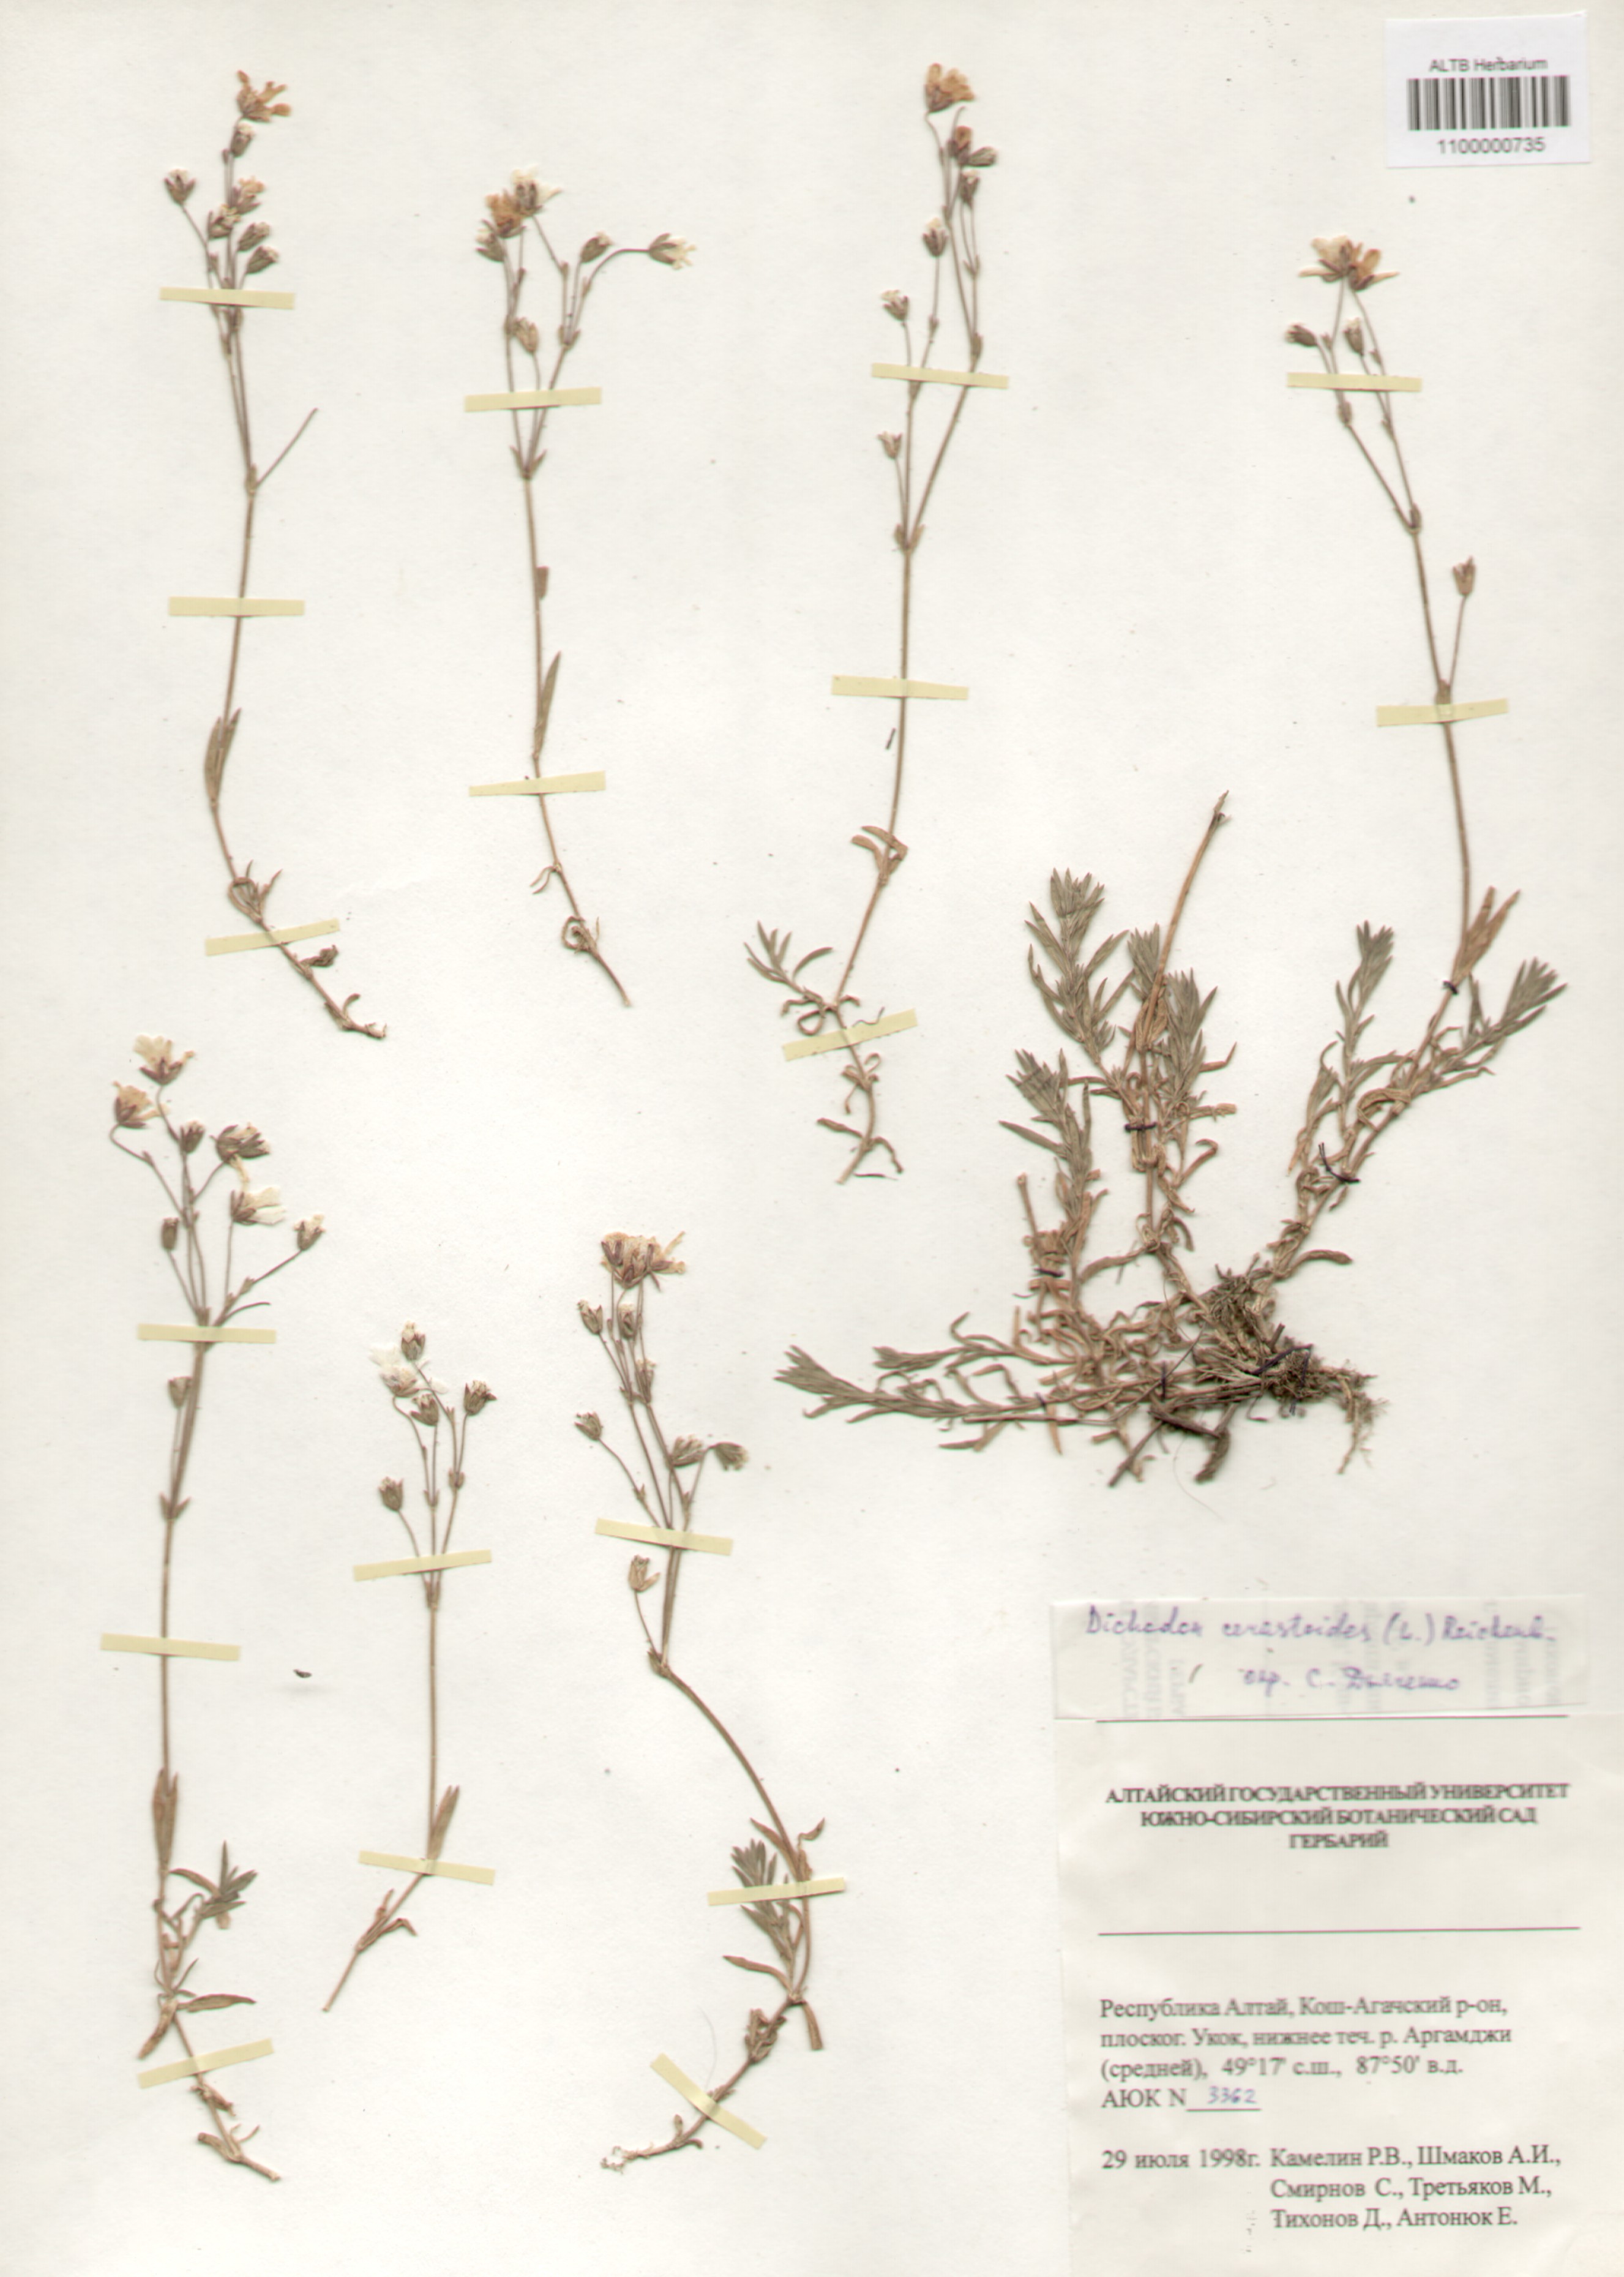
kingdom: Plantae
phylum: Tracheophyta
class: Magnoliopsida
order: Caryophyllales
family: Caryophyllaceae
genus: Dichodon
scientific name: Dichodon cerastoides
